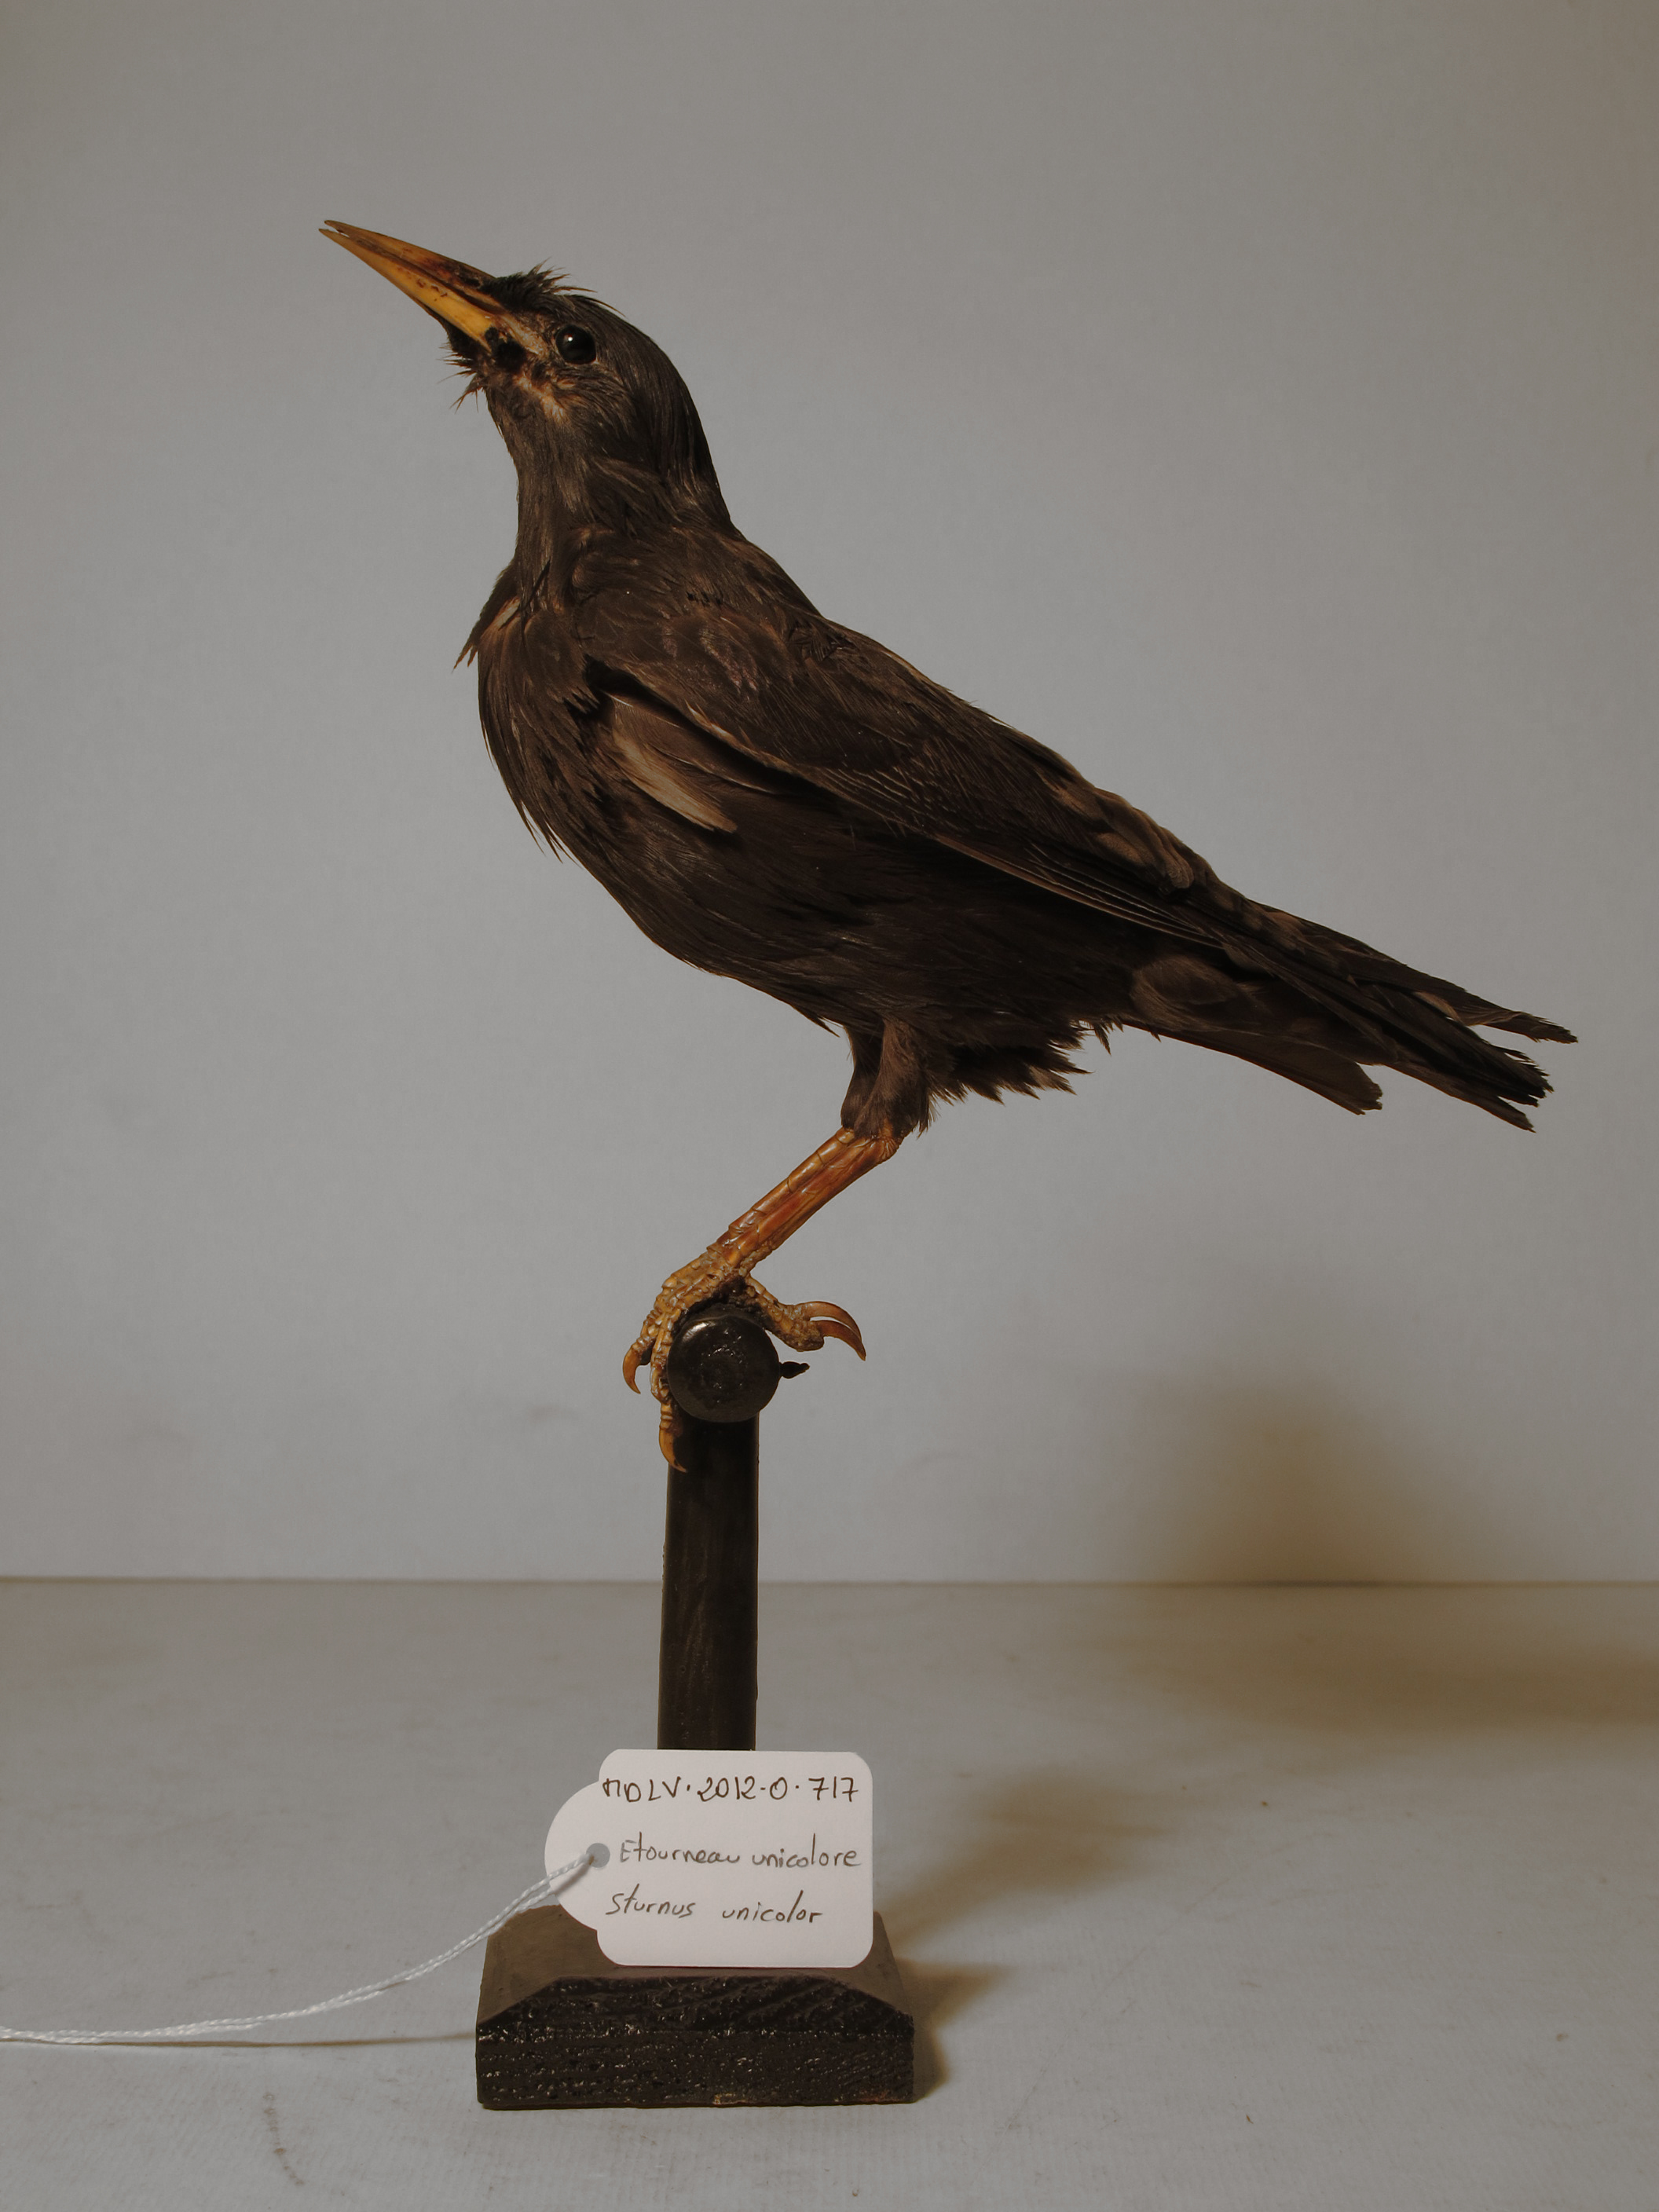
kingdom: Animalia
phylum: Chordata
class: Aves
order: Passeriformes
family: Sturnidae
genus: Sturnus
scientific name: Sturnus unicolor
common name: Spotless Starling
